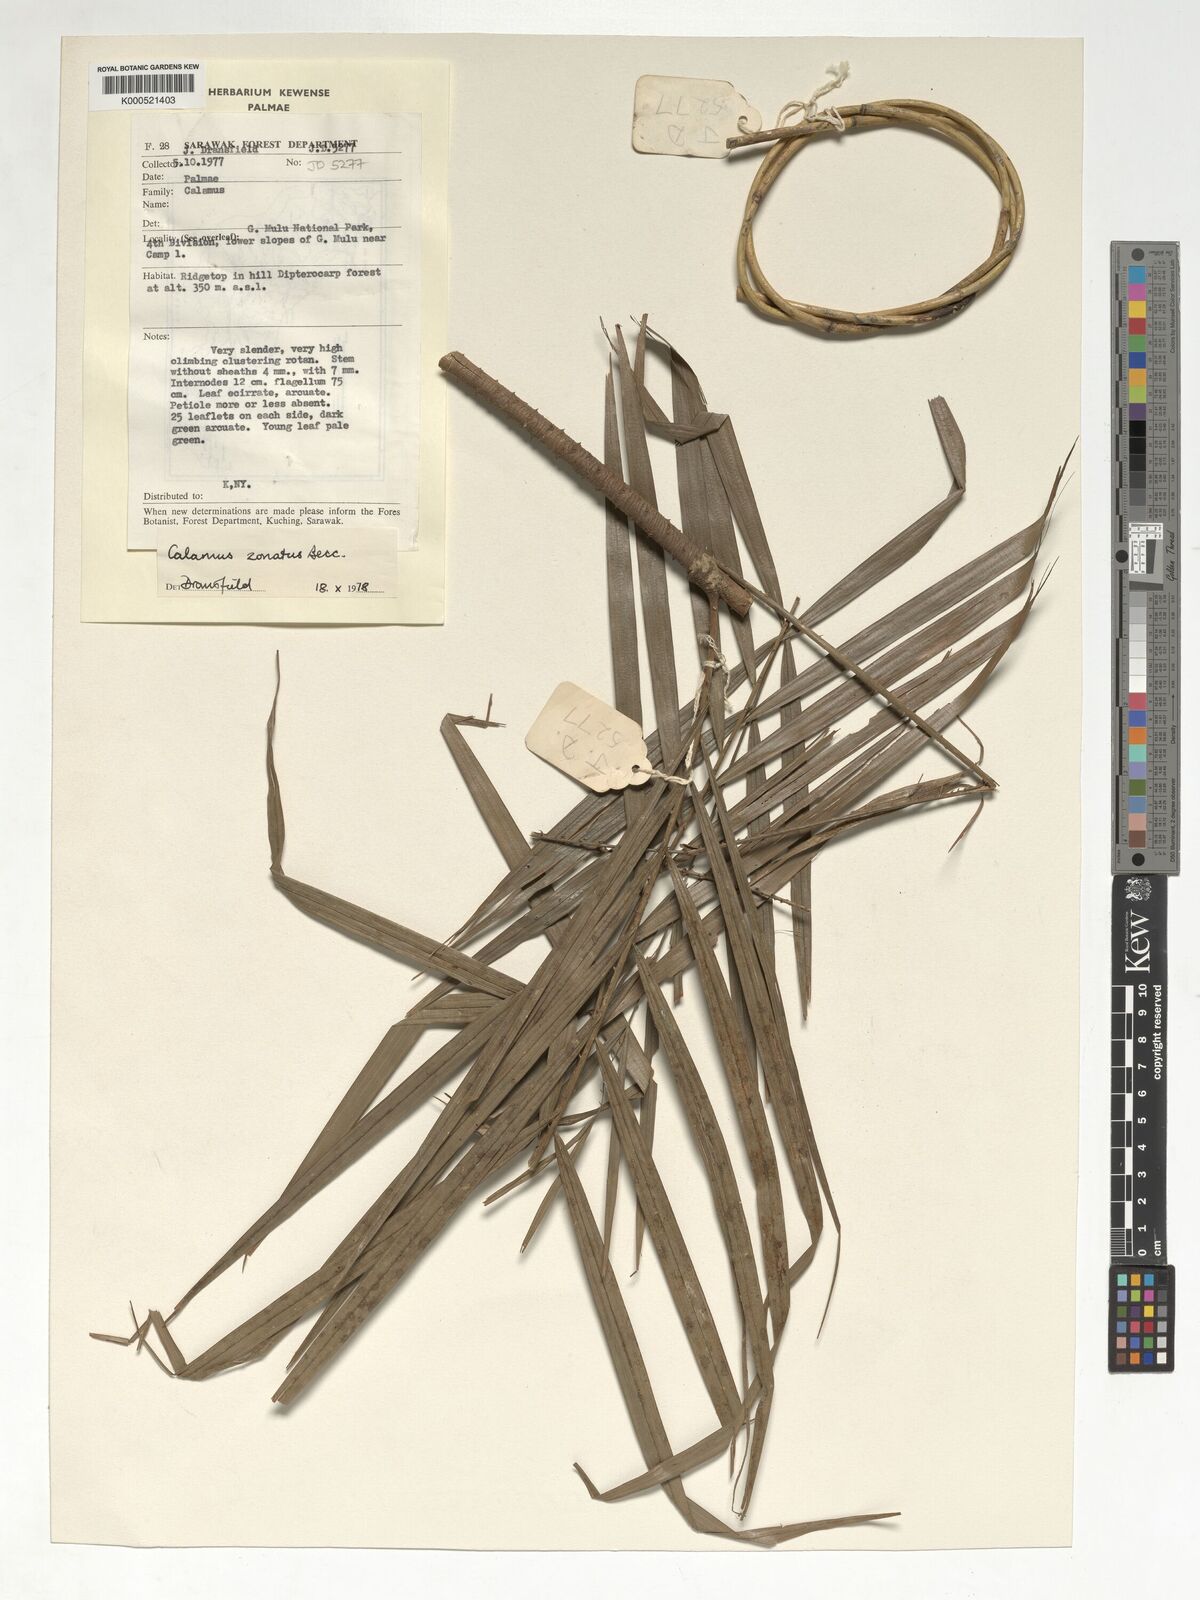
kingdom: Plantae
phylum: Tracheophyta
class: Liliopsida
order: Arecales
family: Arecaceae
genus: Calamus
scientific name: Calamus zonatus
